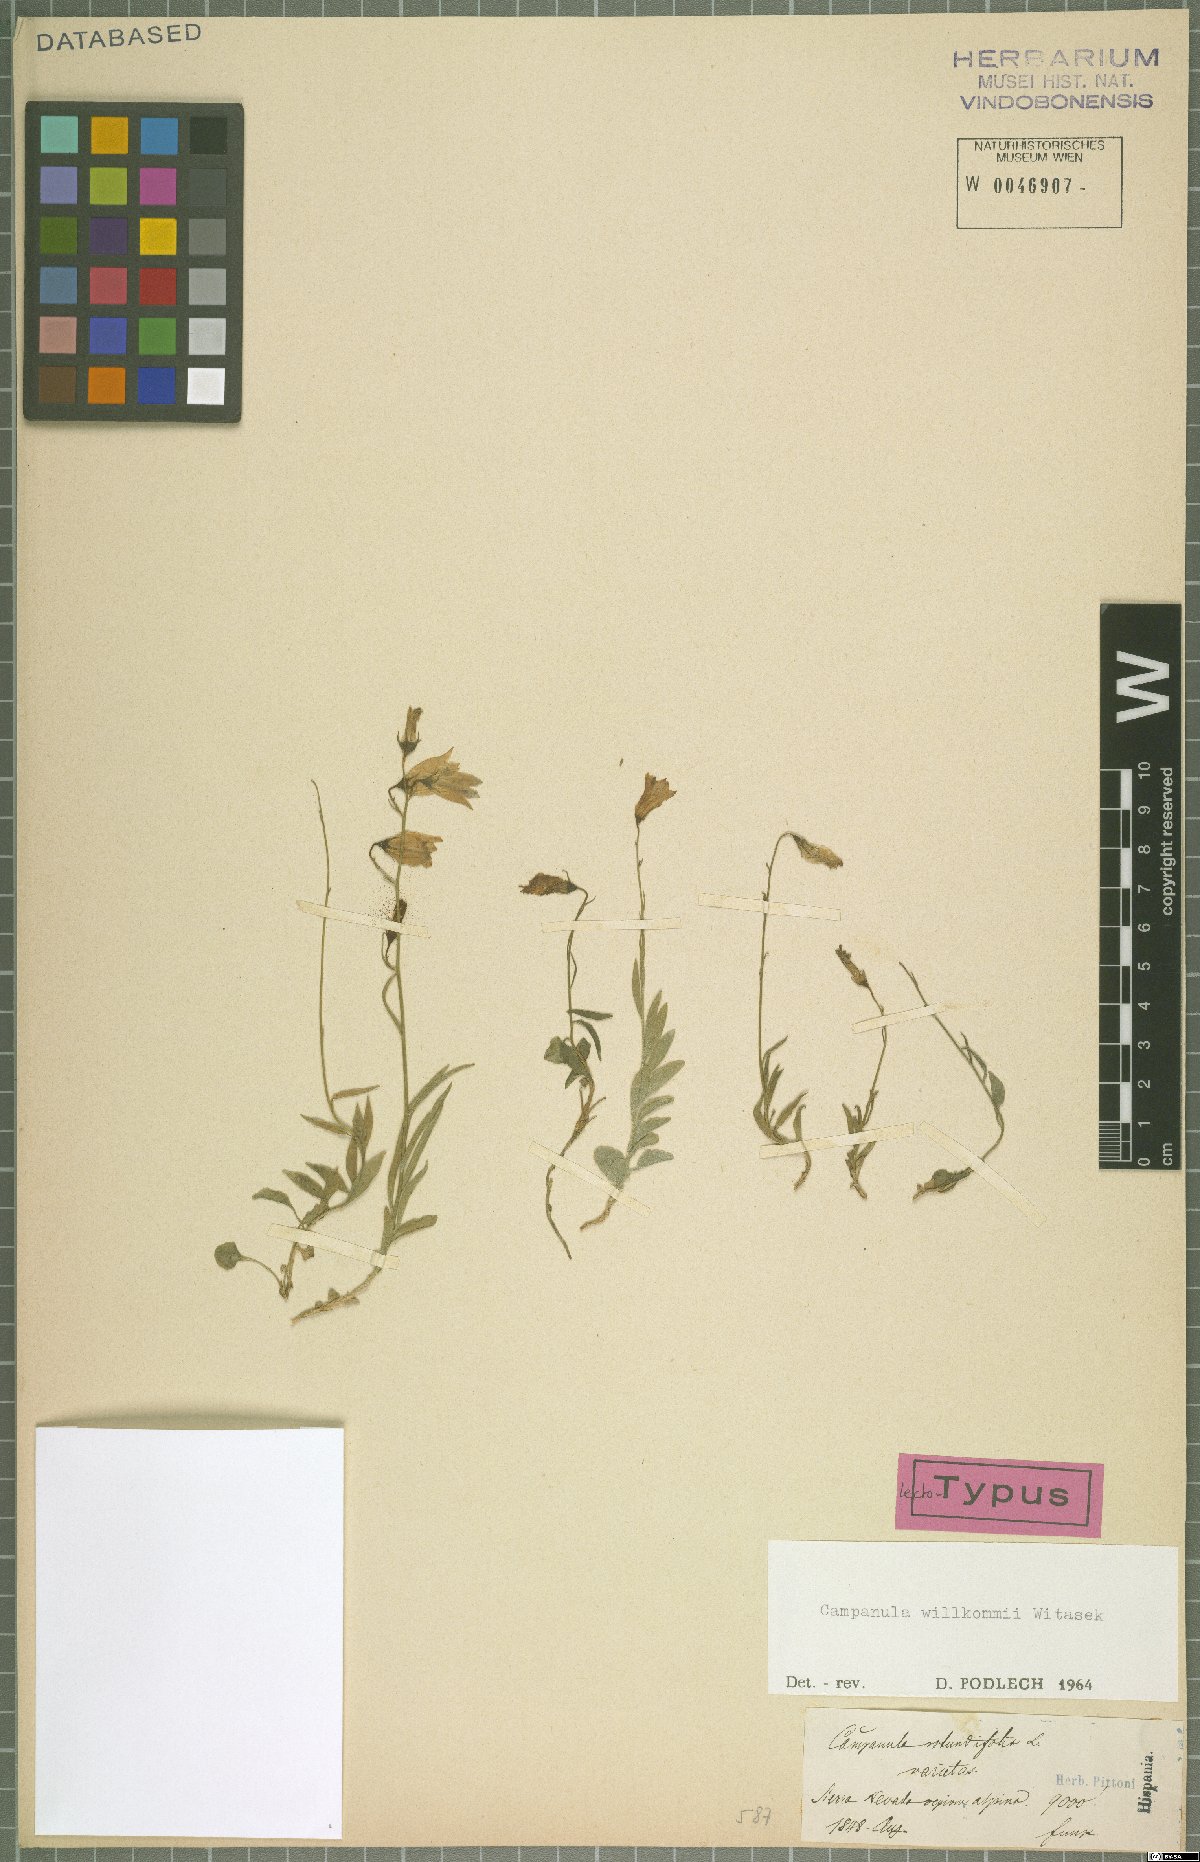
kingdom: Plantae
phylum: Tracheophyta
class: Magnoliopsida
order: Asterales
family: Campanulaceae
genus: Campanula
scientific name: Campanula willkommii
